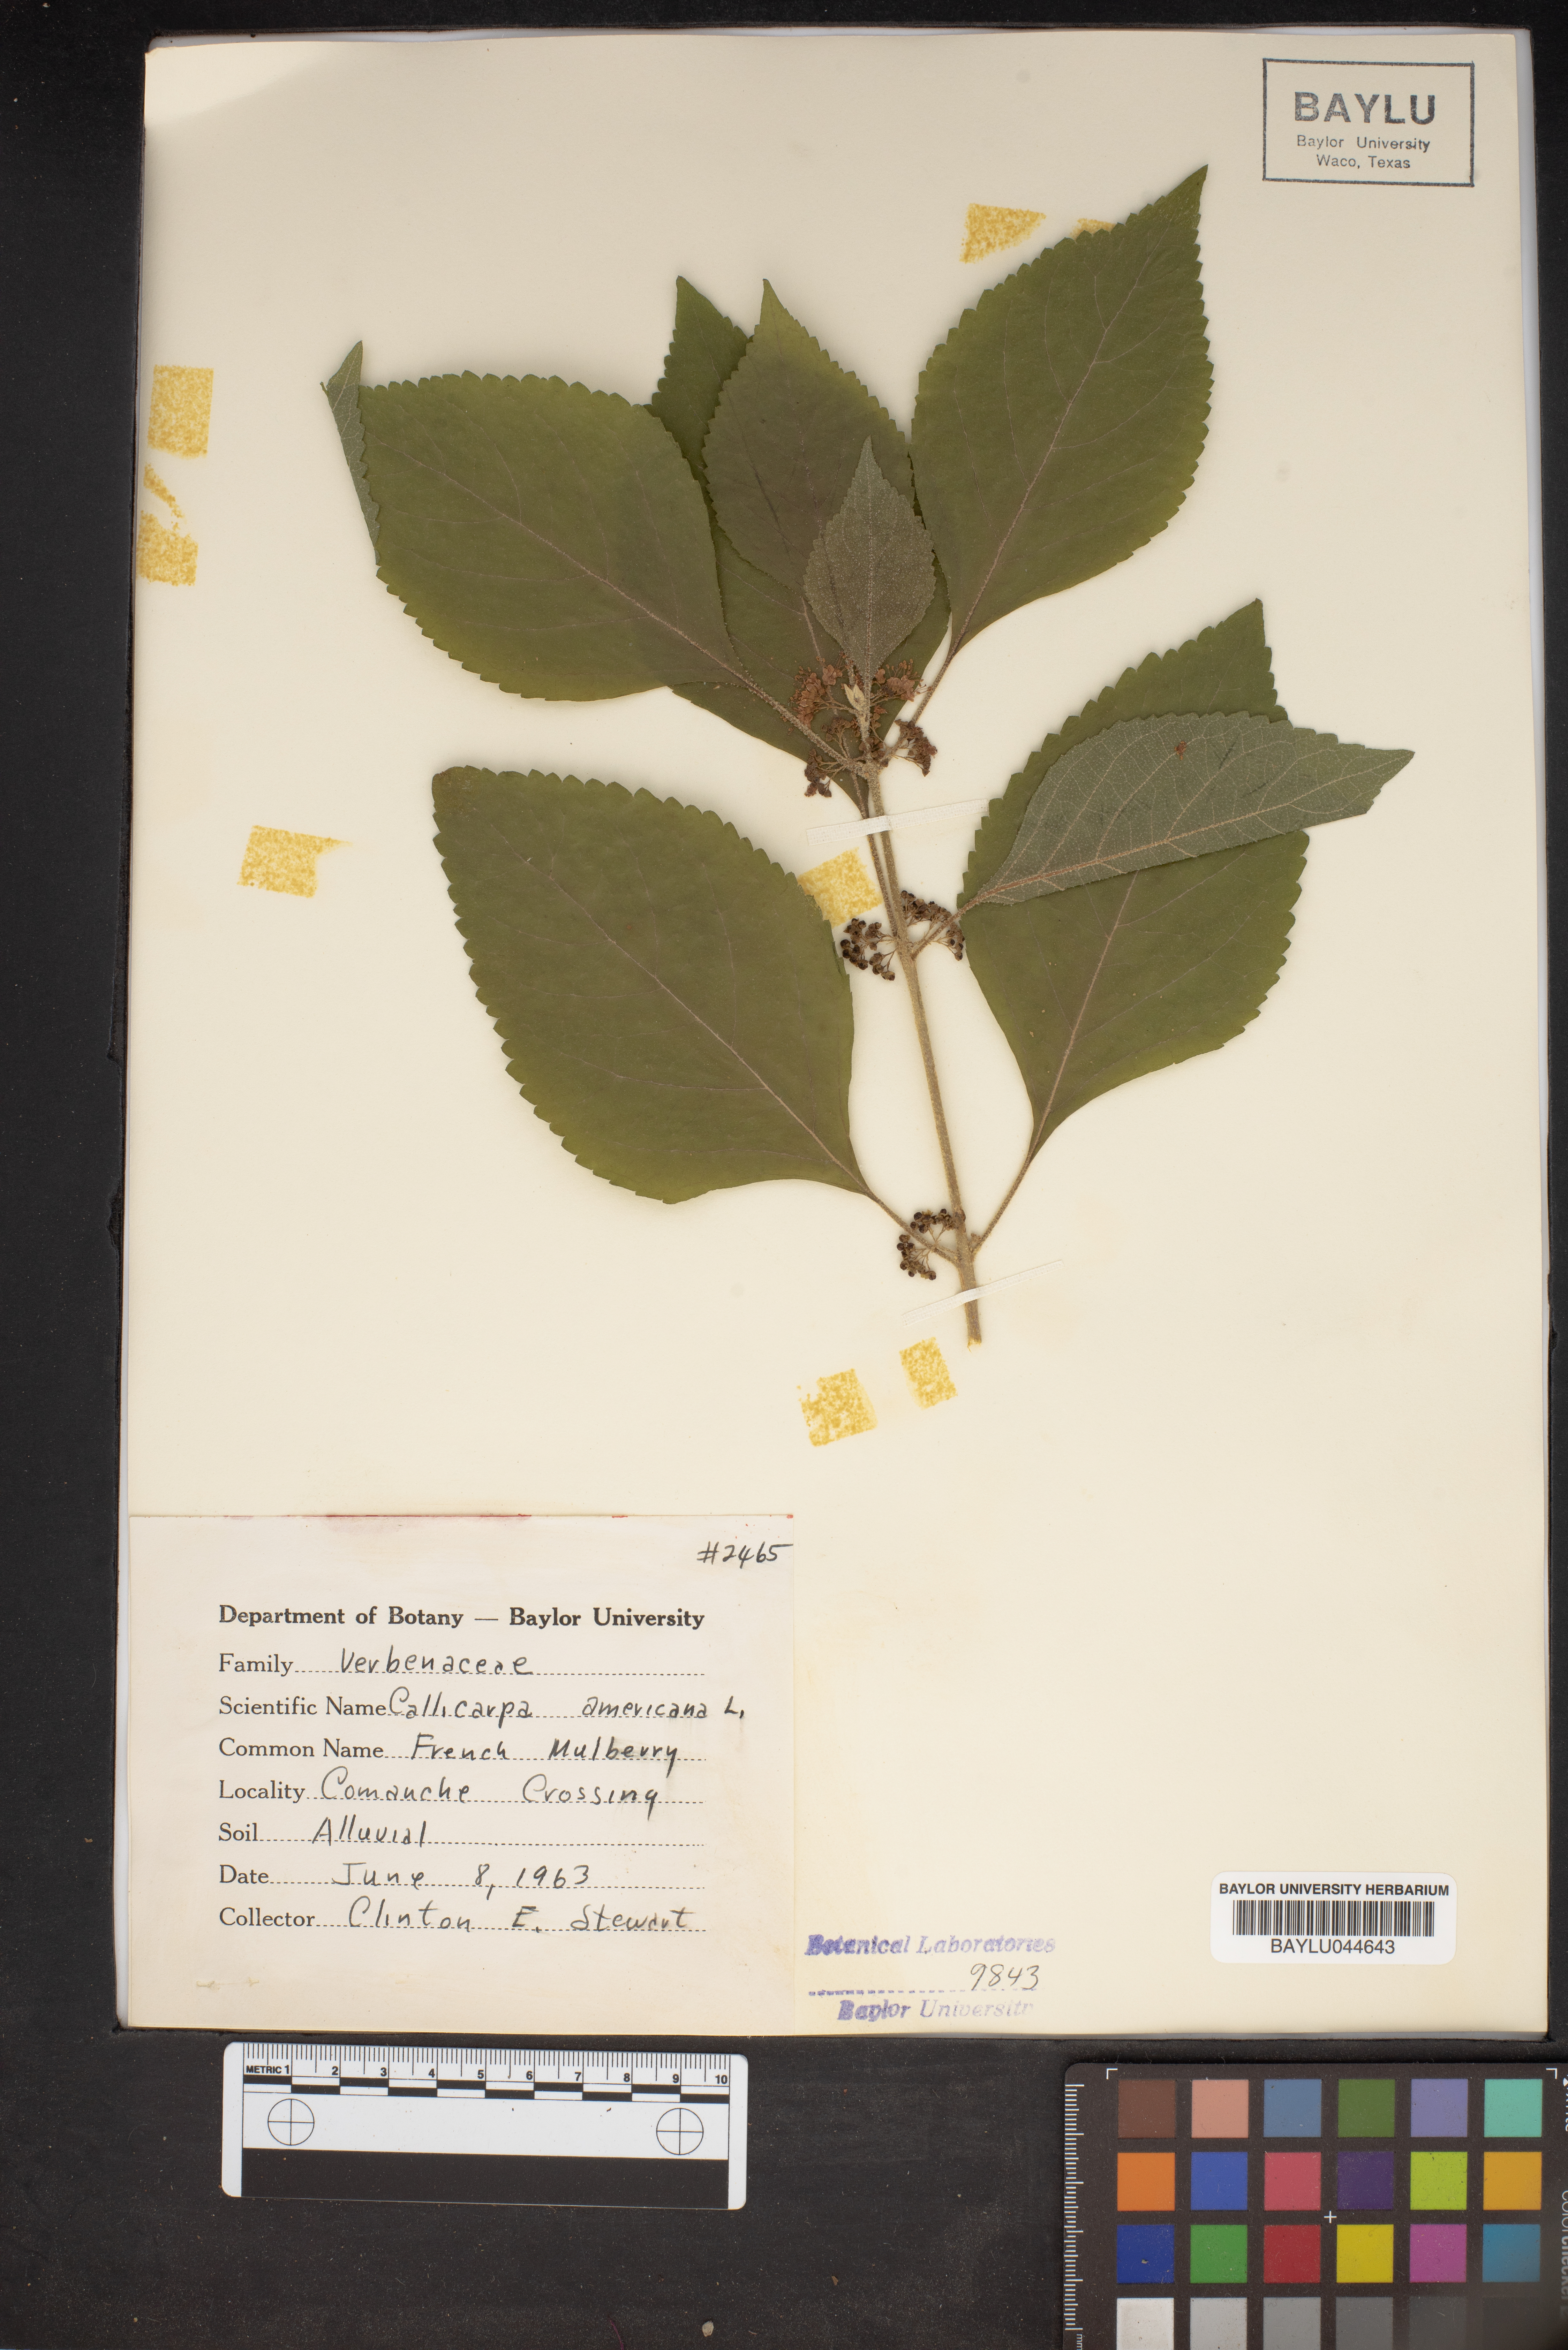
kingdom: Plantae
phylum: Tracheophyta
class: Magnoliopsida
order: Lamiales
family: Lamiaceae
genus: Callicarpa
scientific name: Callicarpa americana
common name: American beautyberry
